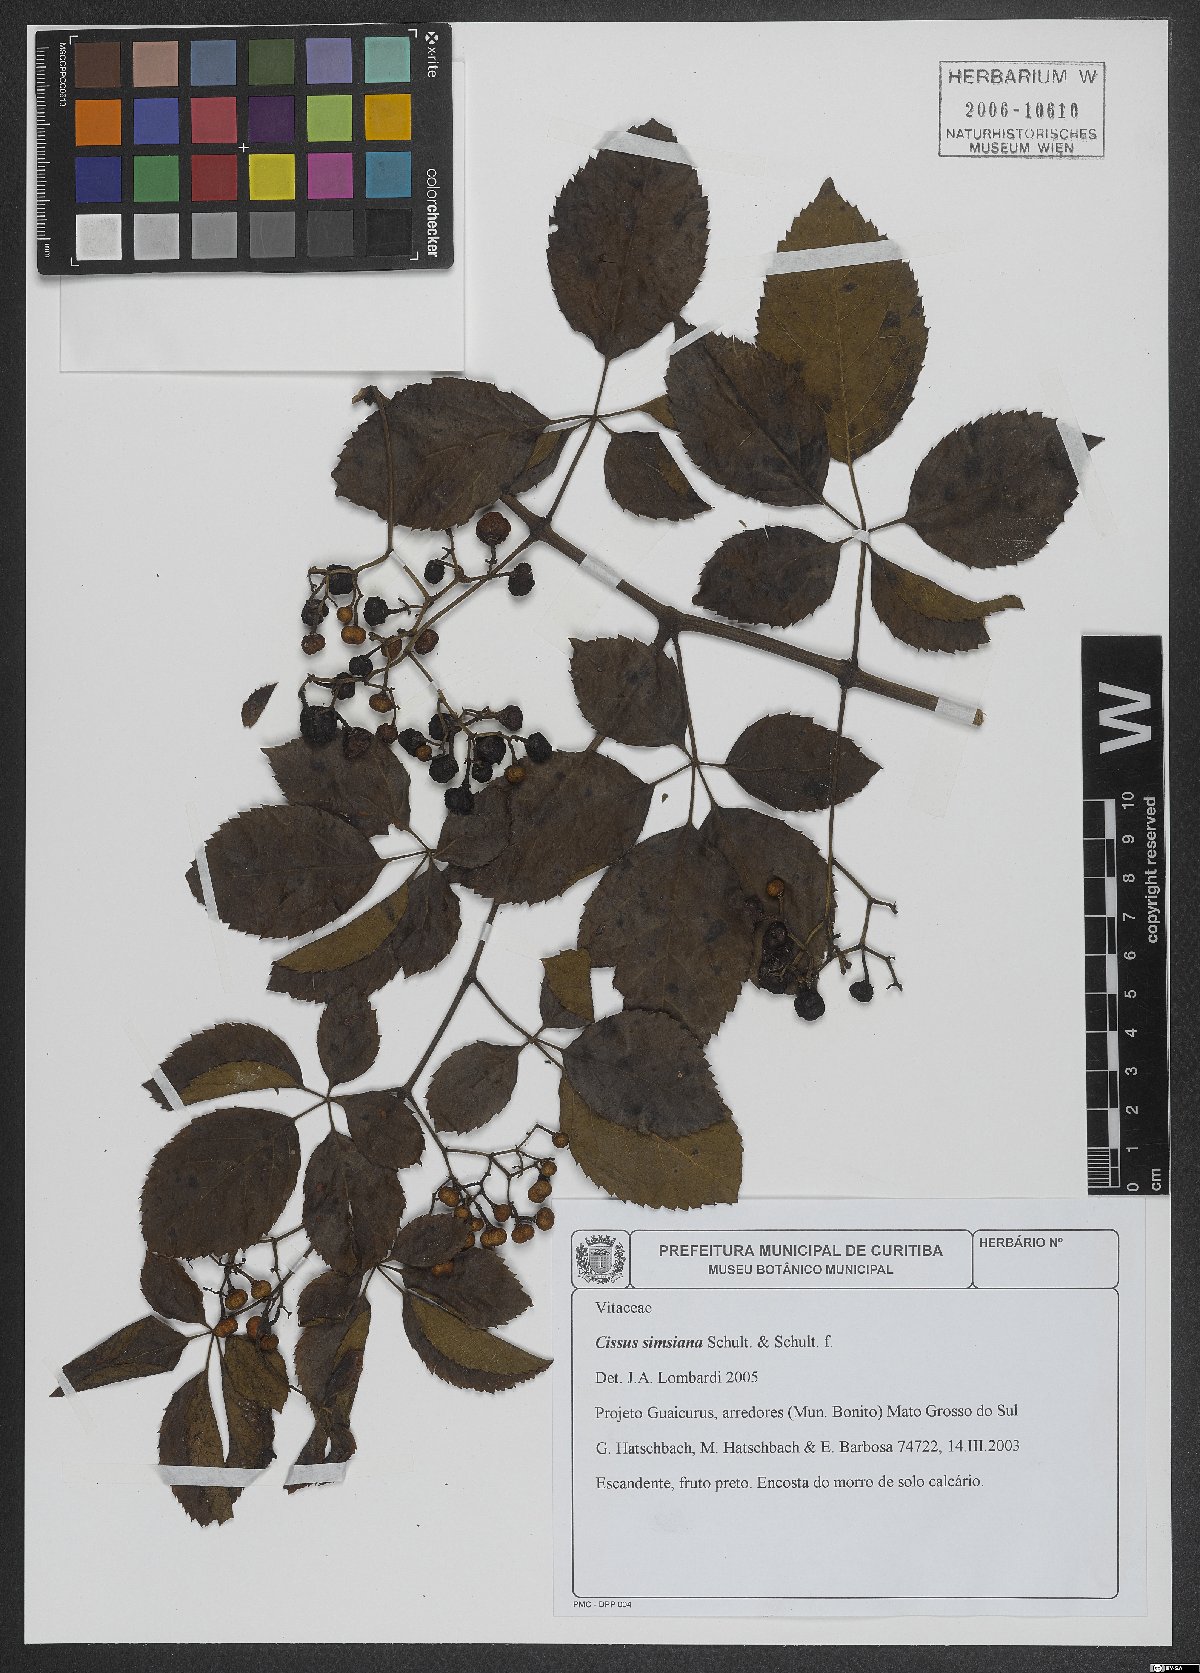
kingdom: Plantae
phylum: Tracheophyta
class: Magnoliopsida
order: Vitales
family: Vitaceae
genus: Clematicissus
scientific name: Clematicissus simsiana
